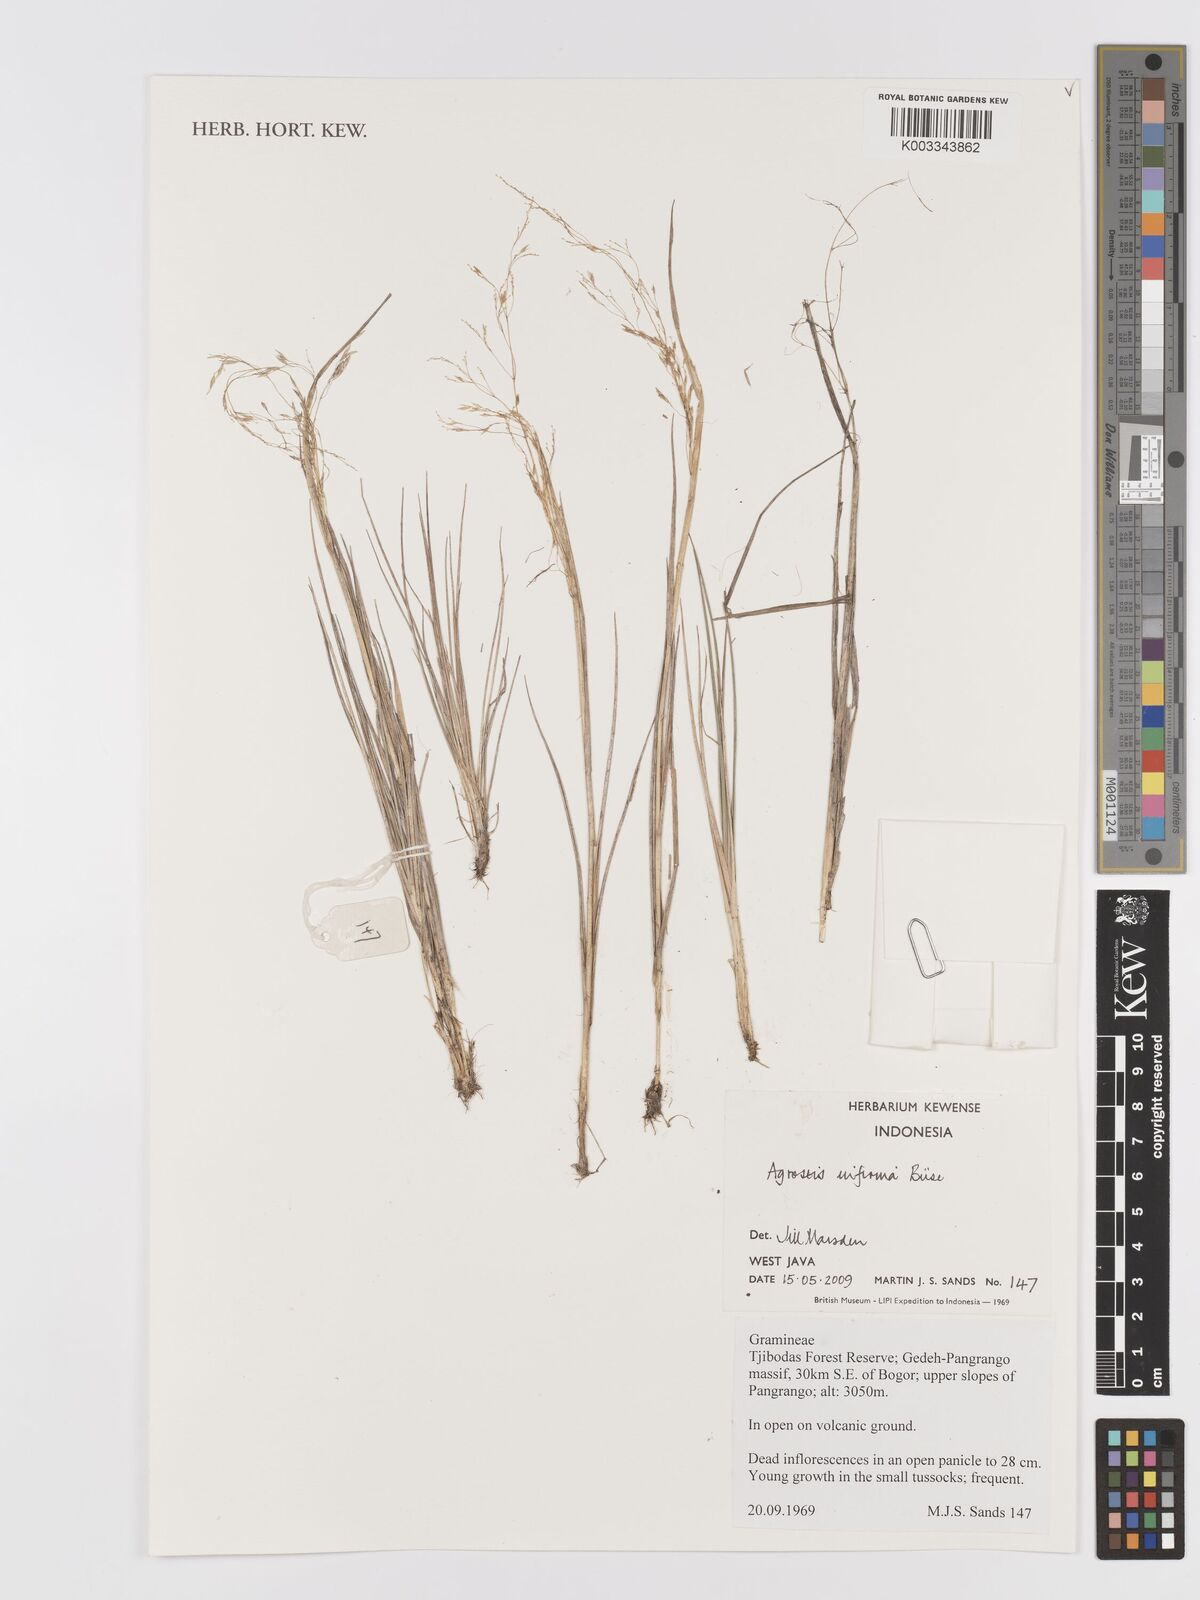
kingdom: Plantae
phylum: Tracheophyta
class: Liliopsida
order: Poales
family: Poaceae
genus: Agrostis
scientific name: Agrostis infirma
